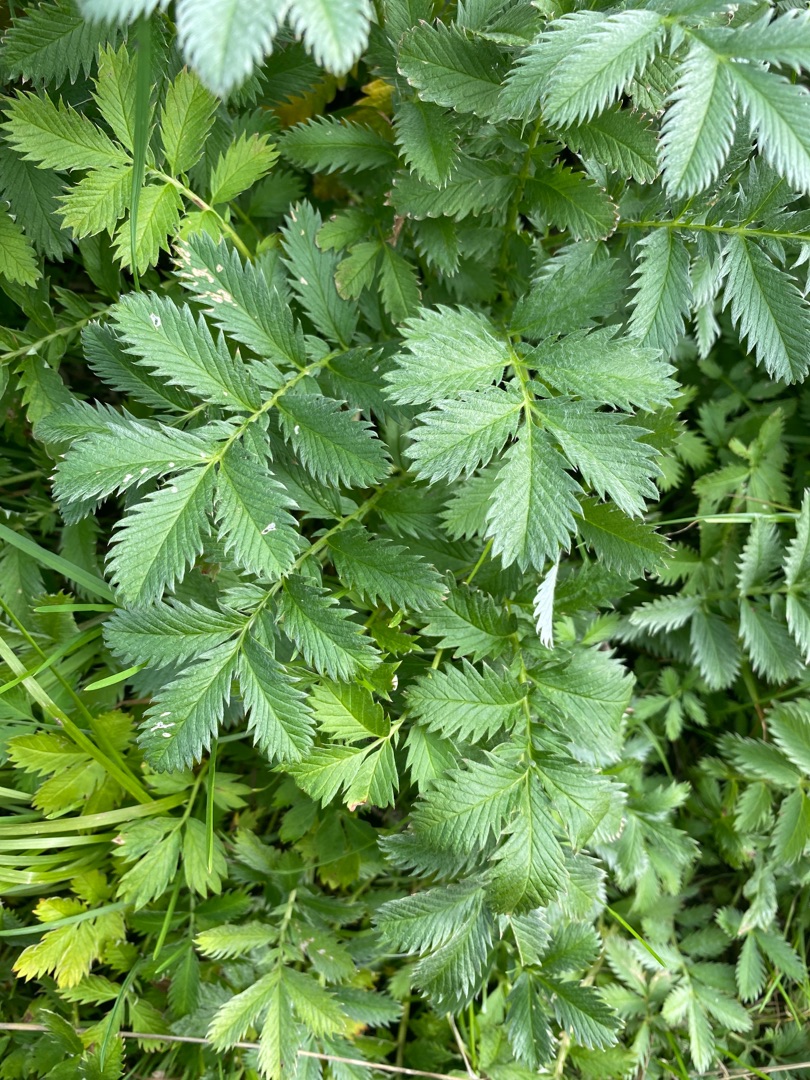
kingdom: Plantae
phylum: Tracheophyta
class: Magnoliopsida
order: Rosales
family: Rosaceae
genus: Argentina
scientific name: Argentina anserina
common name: Gåsepotentil
